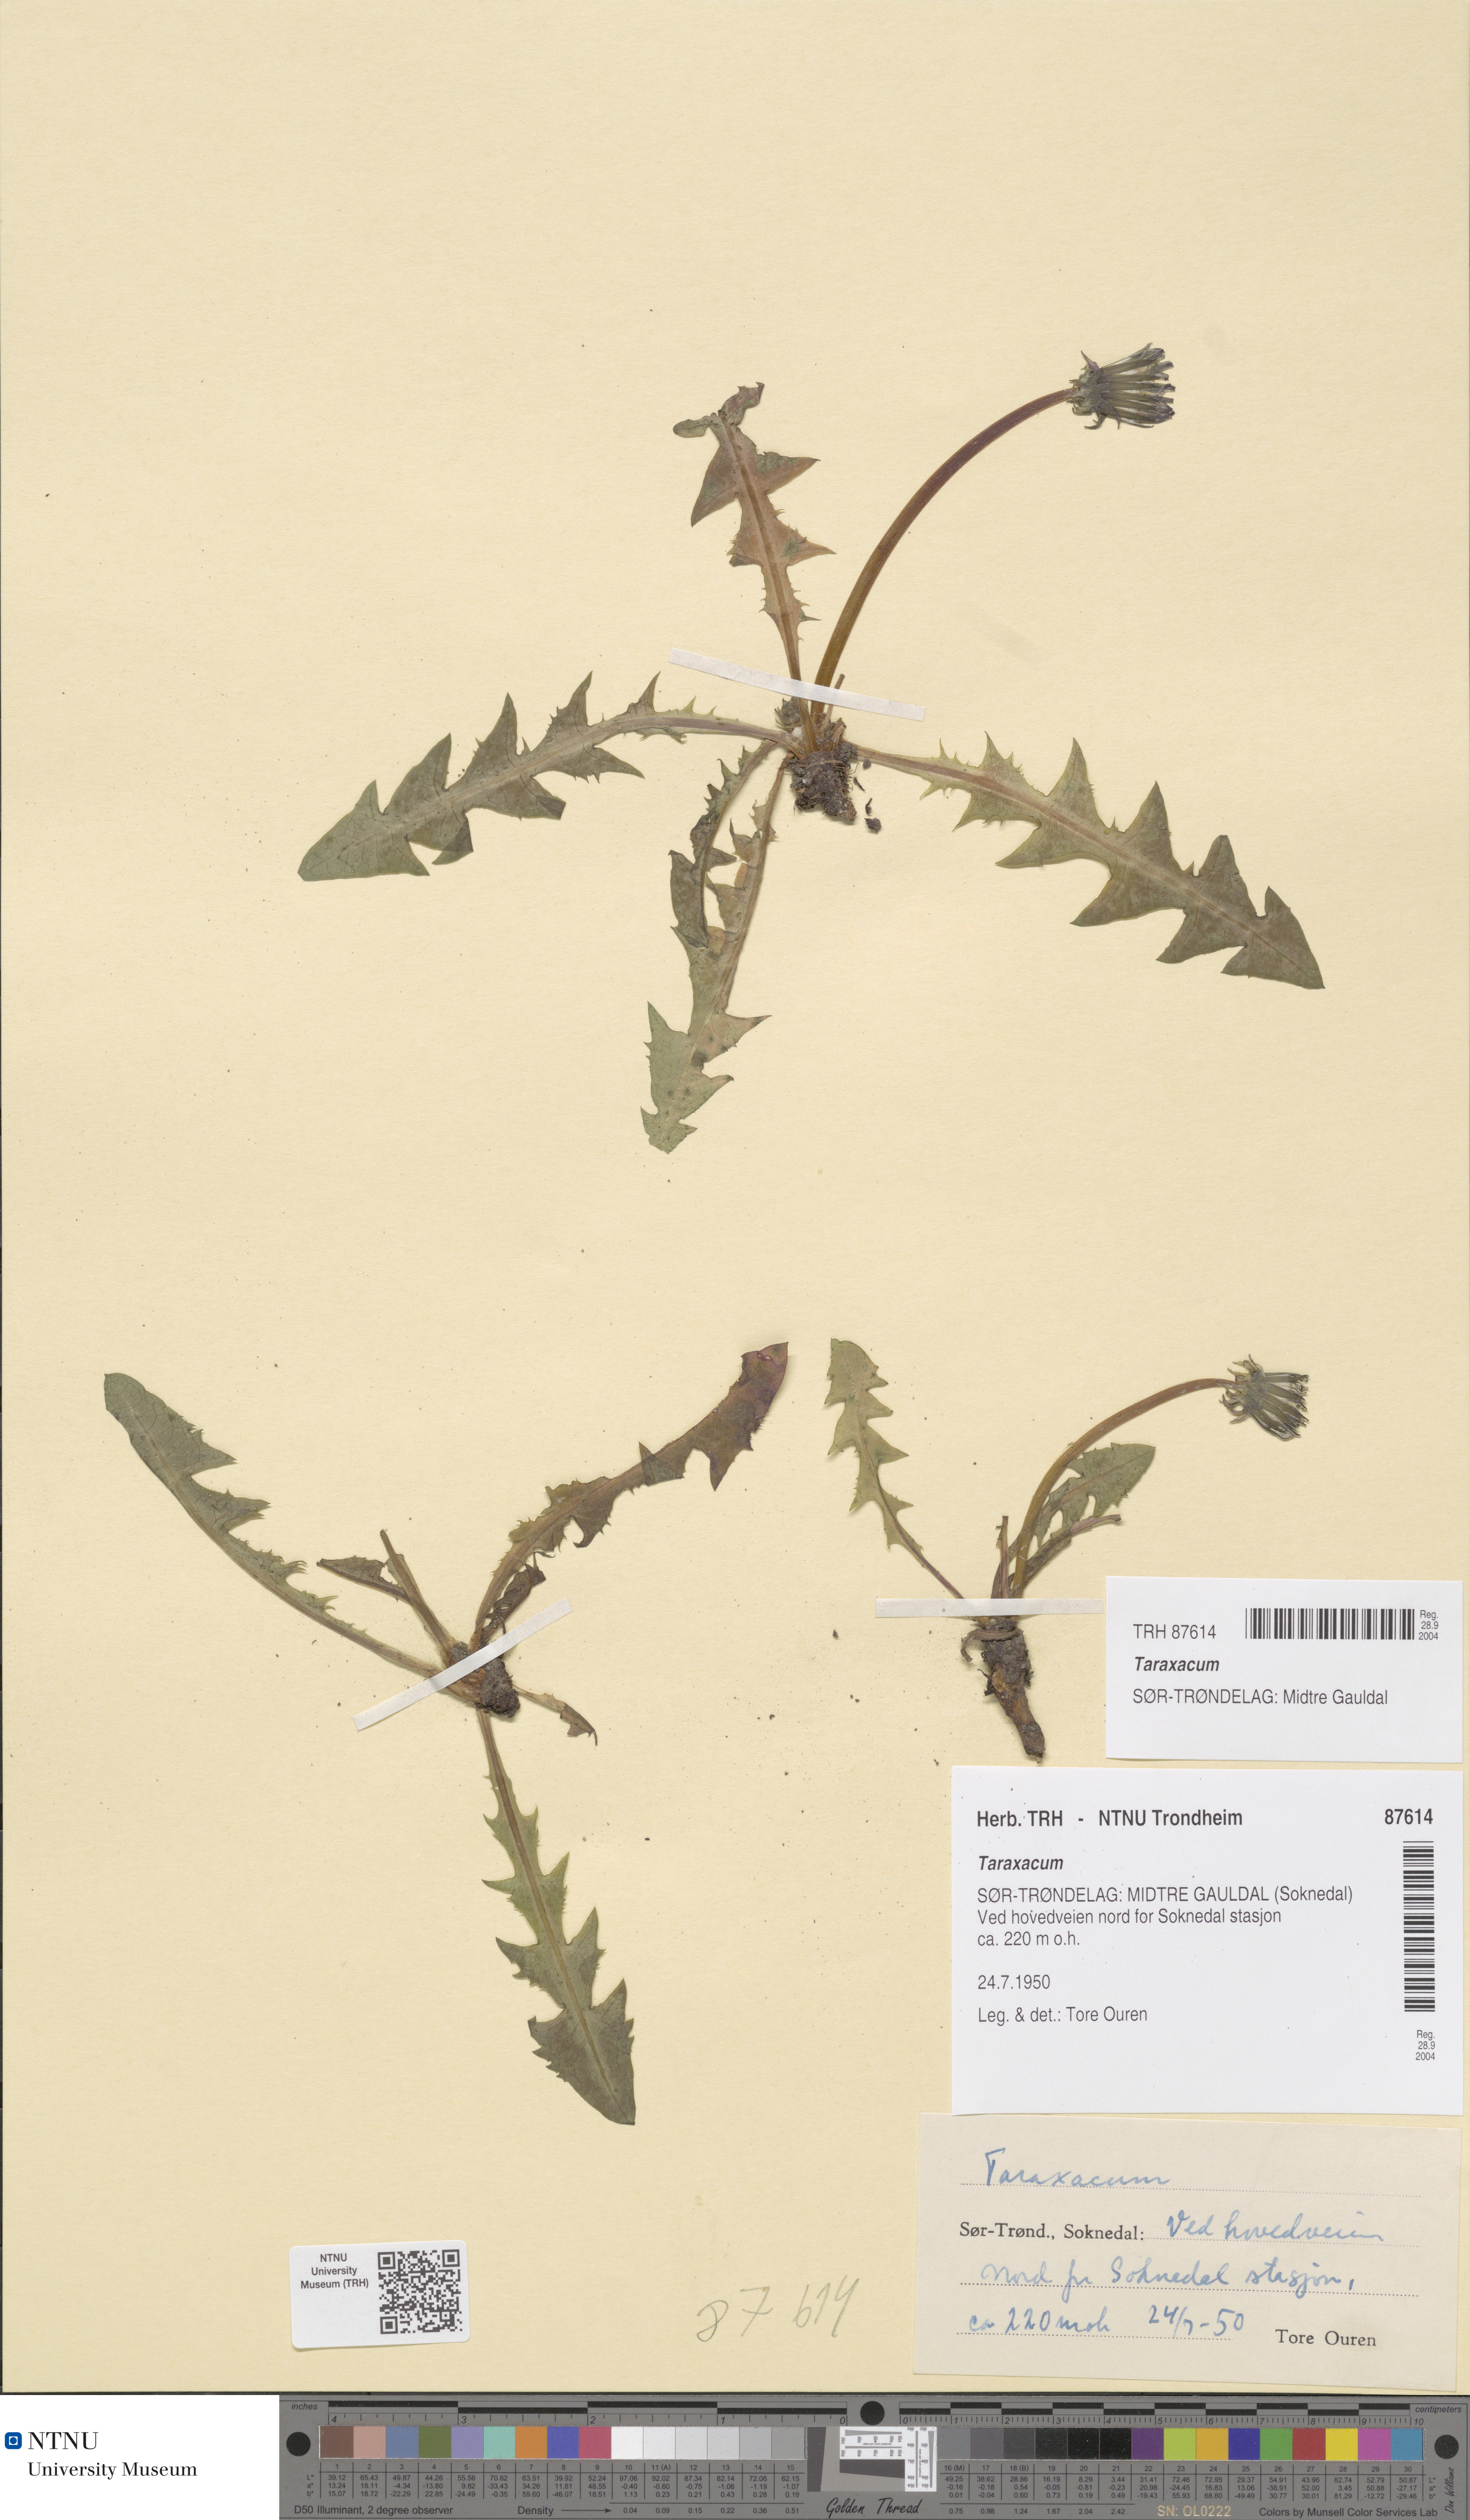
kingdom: Plantae
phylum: Tracheophyta
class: Magnoliopsida
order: Asterales
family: Asteraceae
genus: Taraxacum
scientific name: Taraxacum
